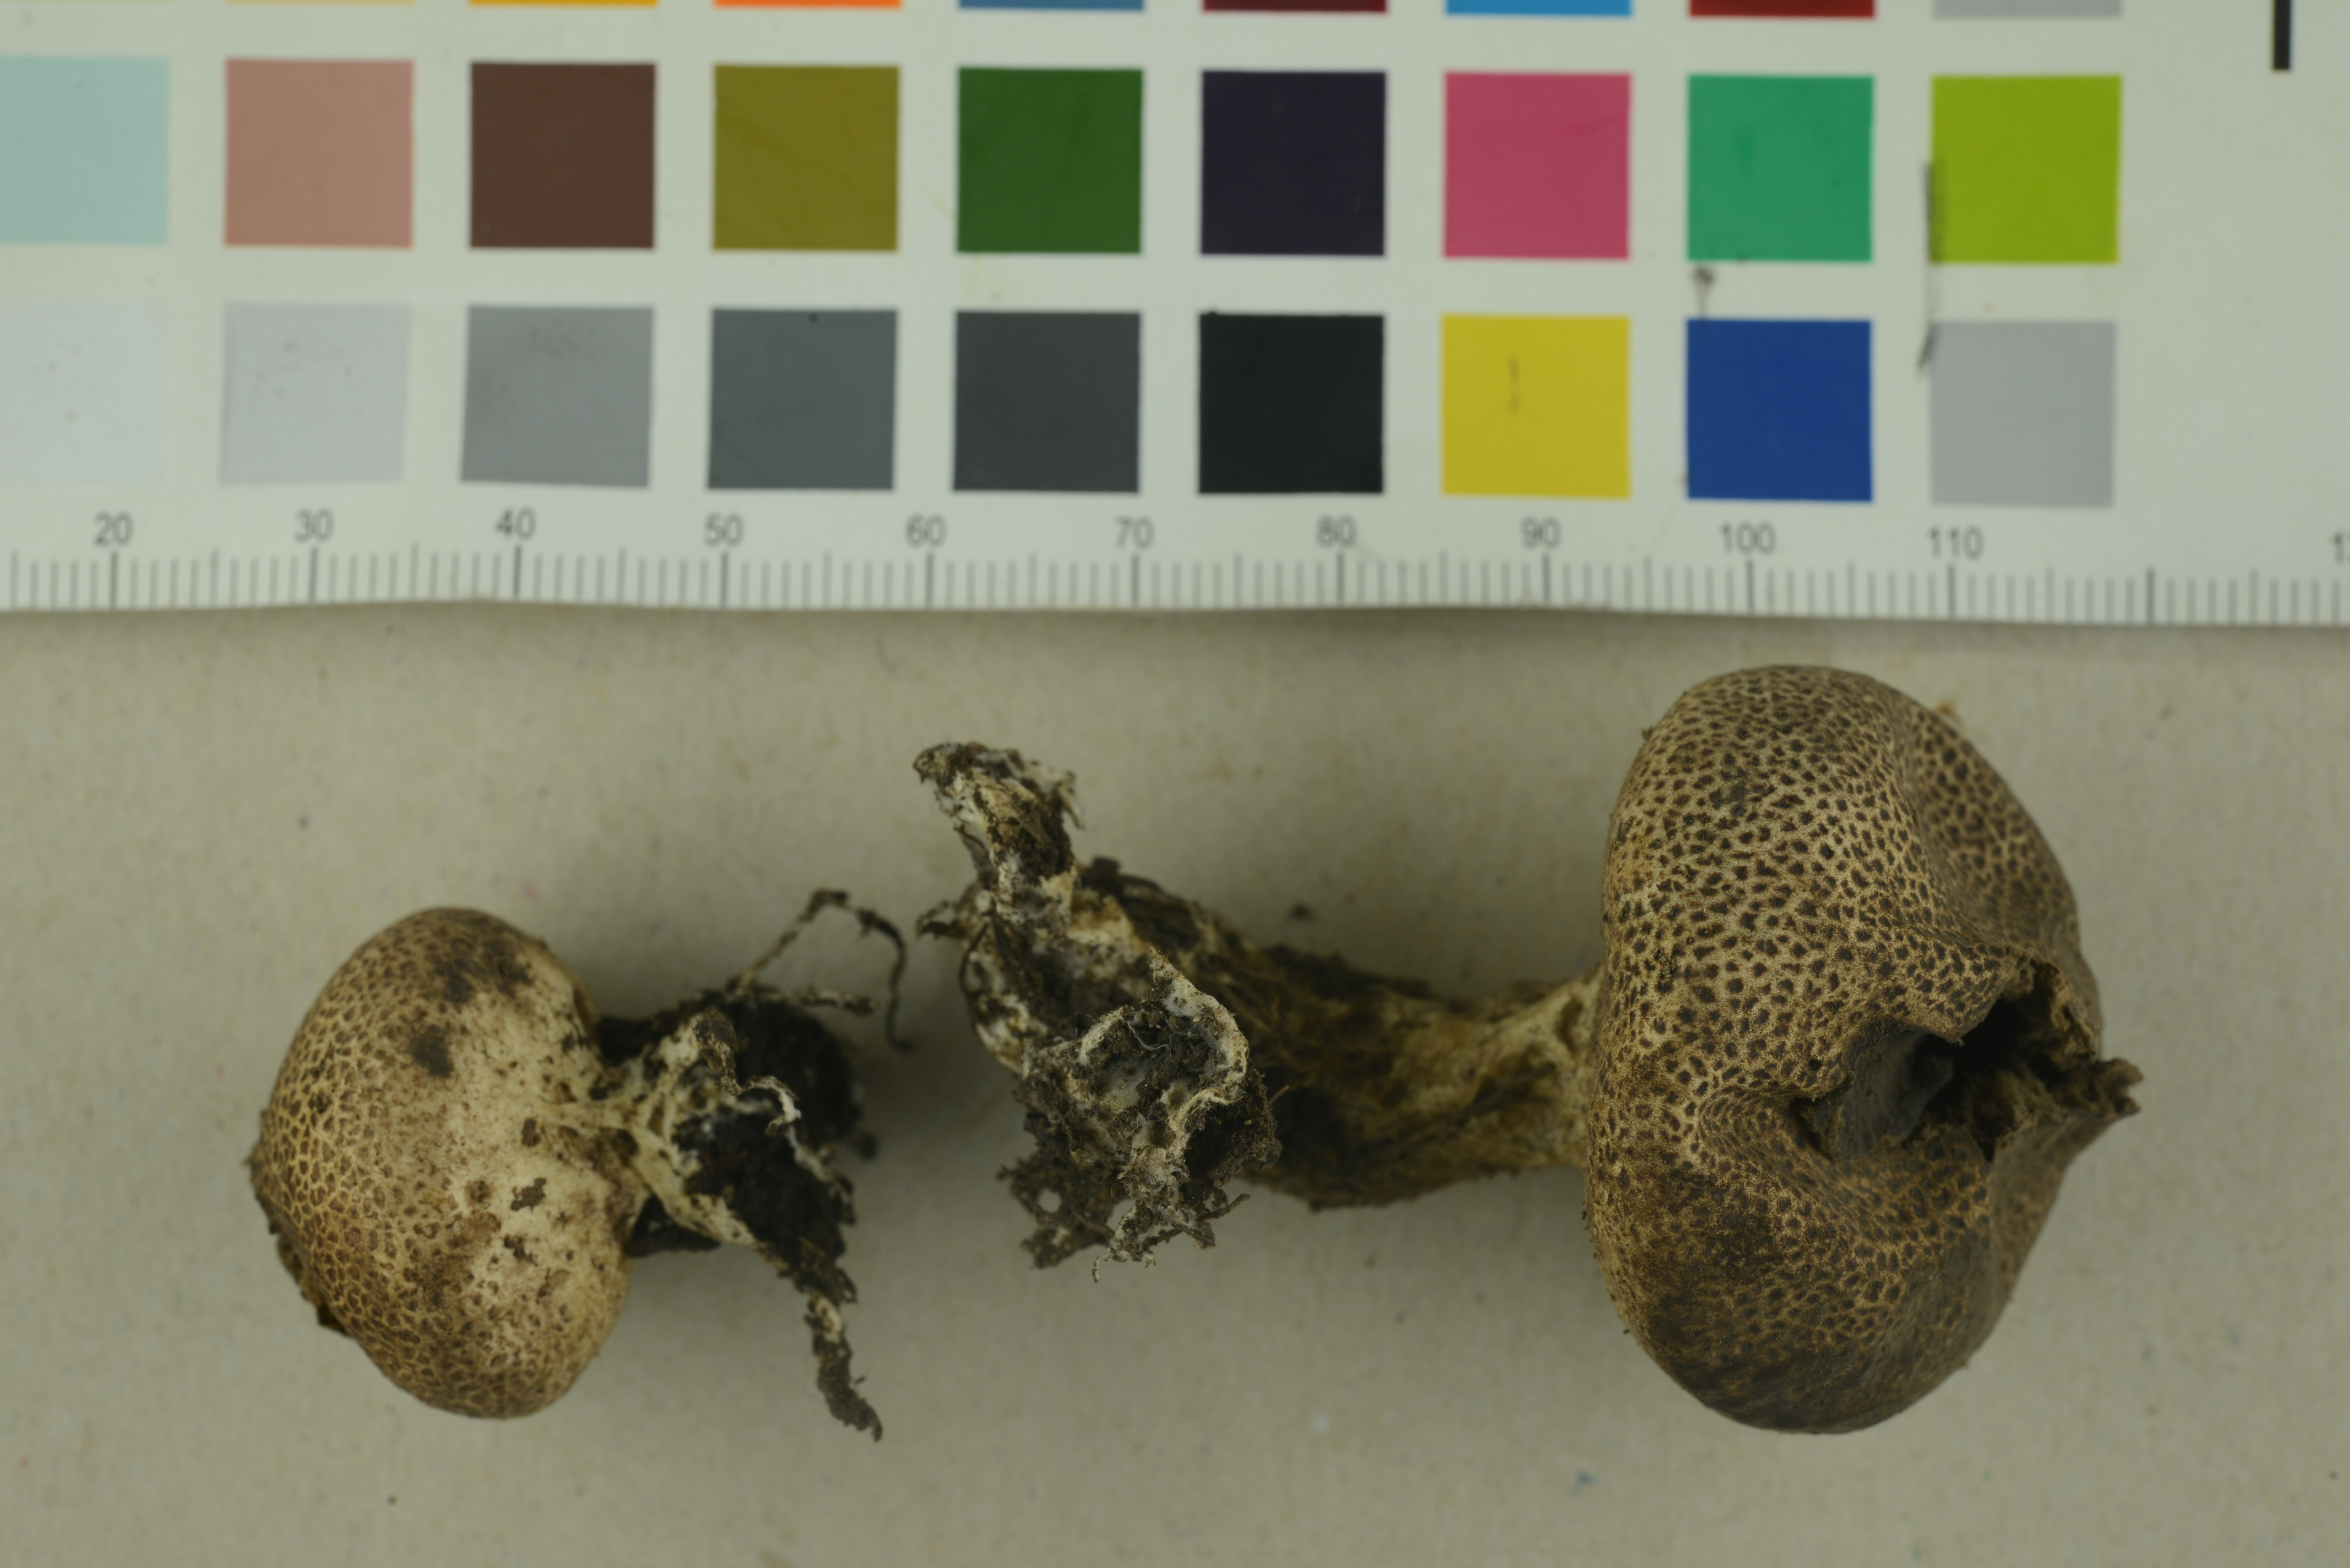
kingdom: Fungi
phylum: Basidiomycota
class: Agaricomycetes
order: Boletales
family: Sclerodermataceae
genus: Scleroderma
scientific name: Scleroderma areolatum
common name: Leopard earthball
